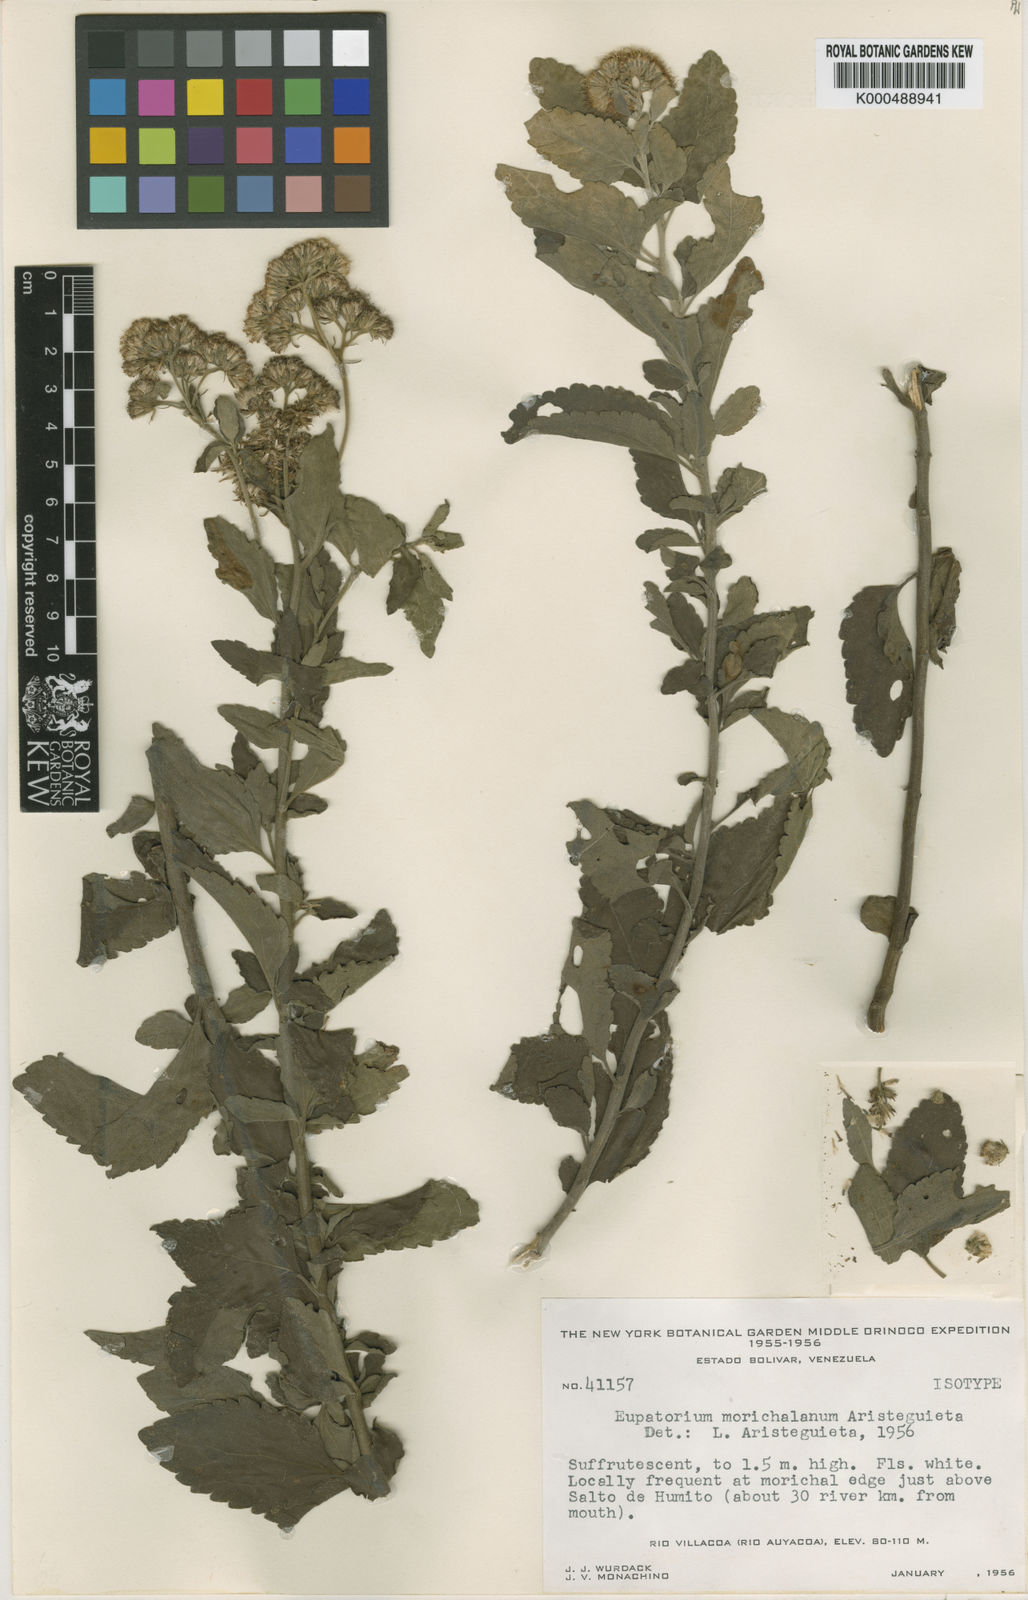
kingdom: Plantae
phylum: Tracheophyta
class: Magnoliopsida
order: Asterales
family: Asteraceae
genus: Barrosoa
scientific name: Barrosoa metensis
